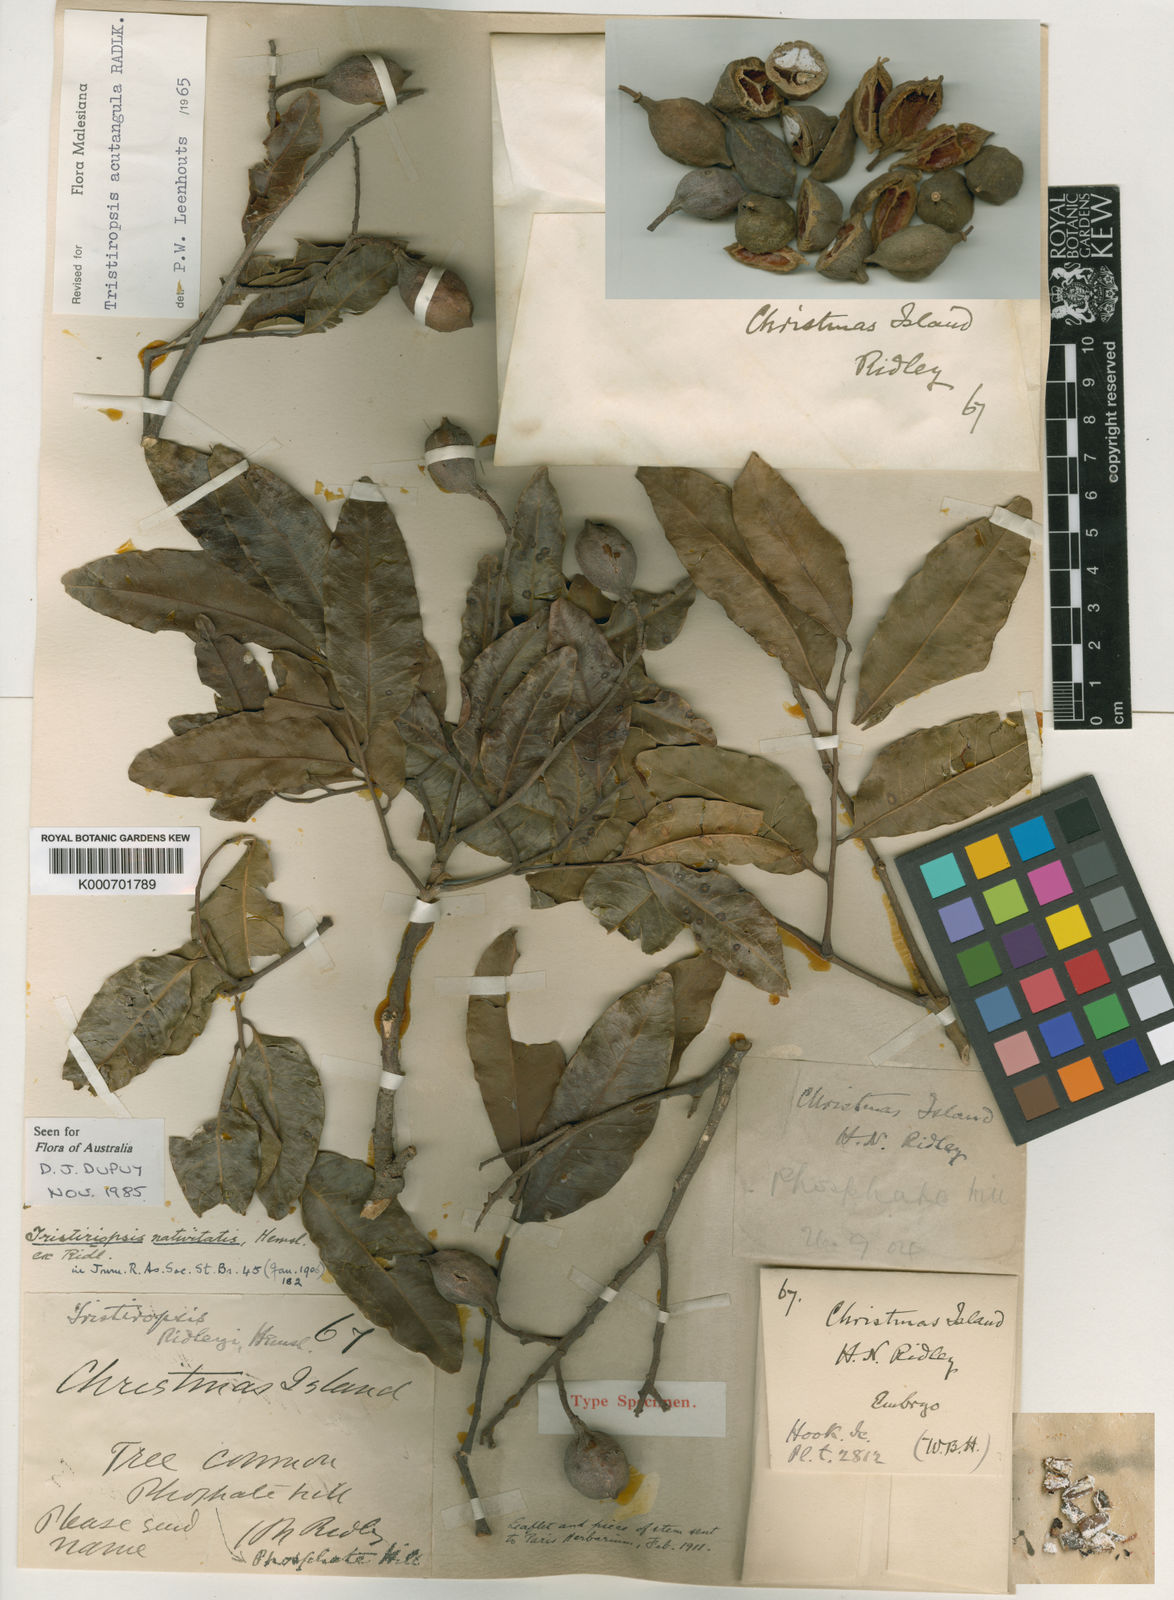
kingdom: Plantae
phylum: Tracheophyta
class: Magnoliopsida
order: Sapindales
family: Sapindaceae
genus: Tristiropsis
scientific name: Tristiropsis acutangula
